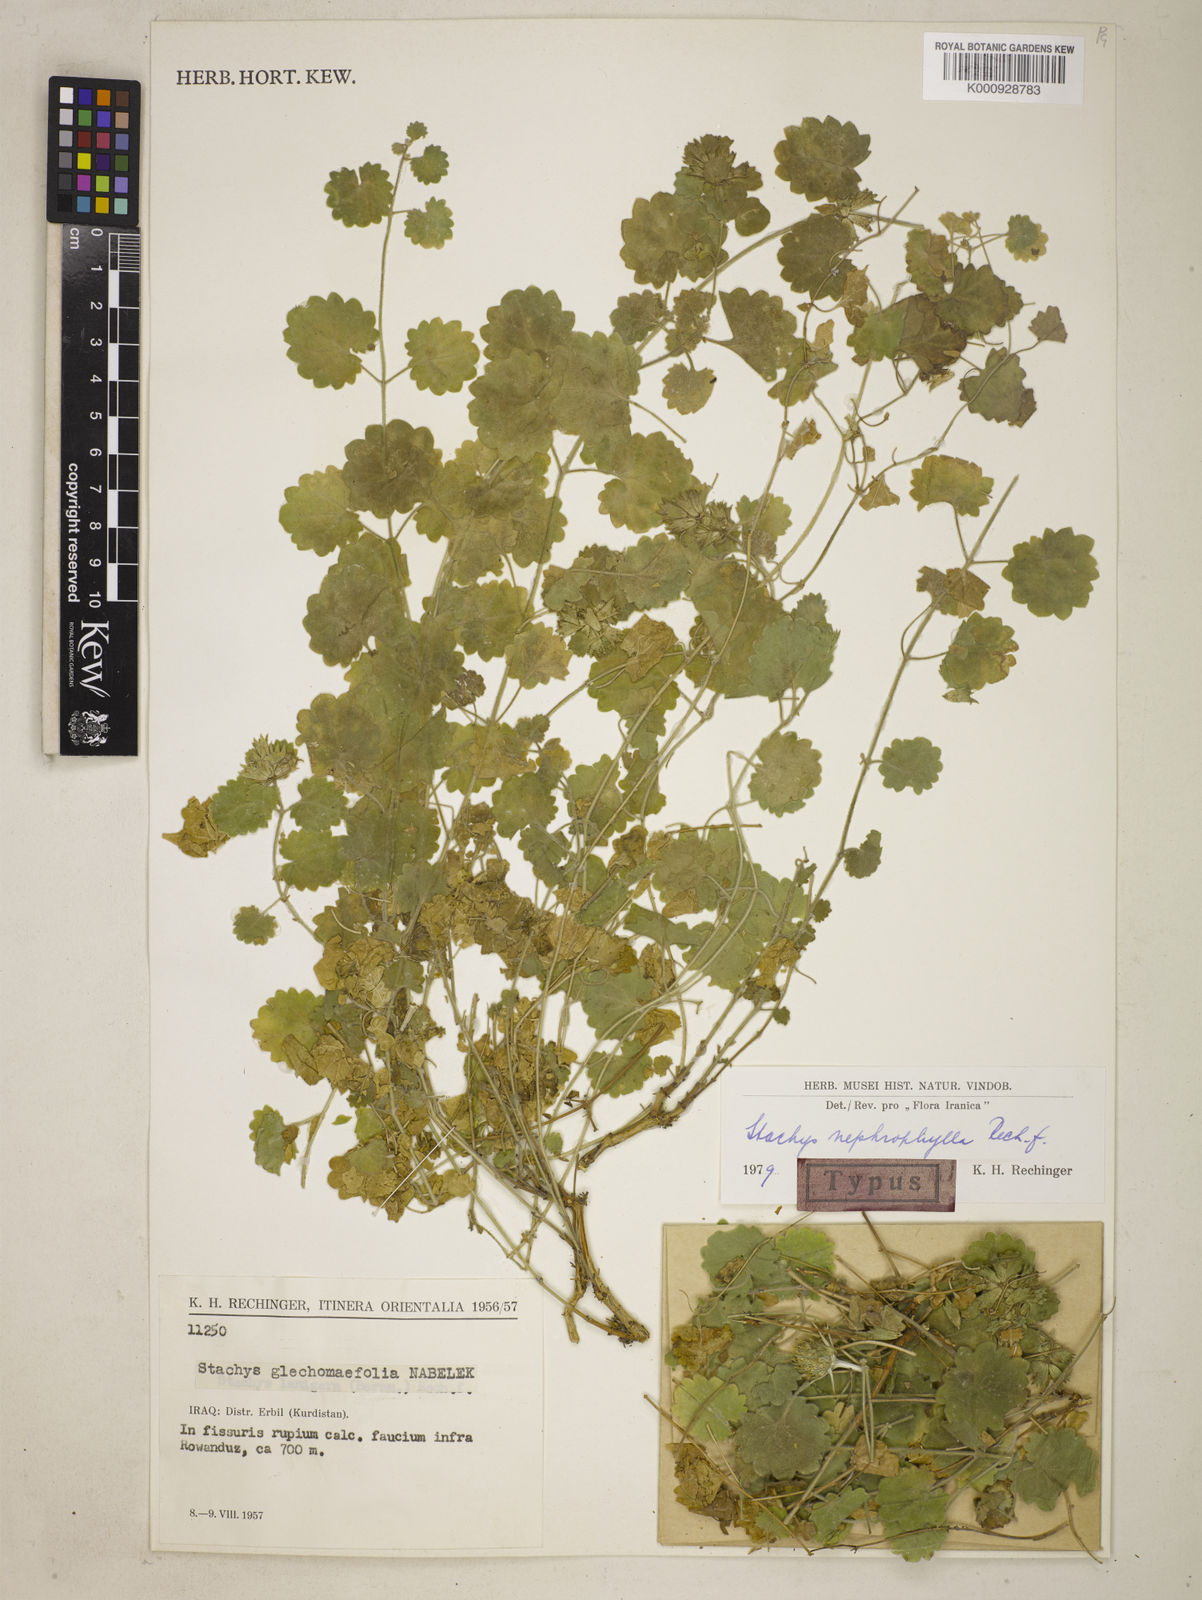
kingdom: Plantae
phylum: Tracheophyta
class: Magnoliopsida
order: Lamiales
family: Lamiaceae
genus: Stachys
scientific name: Stachys nephrophylla
